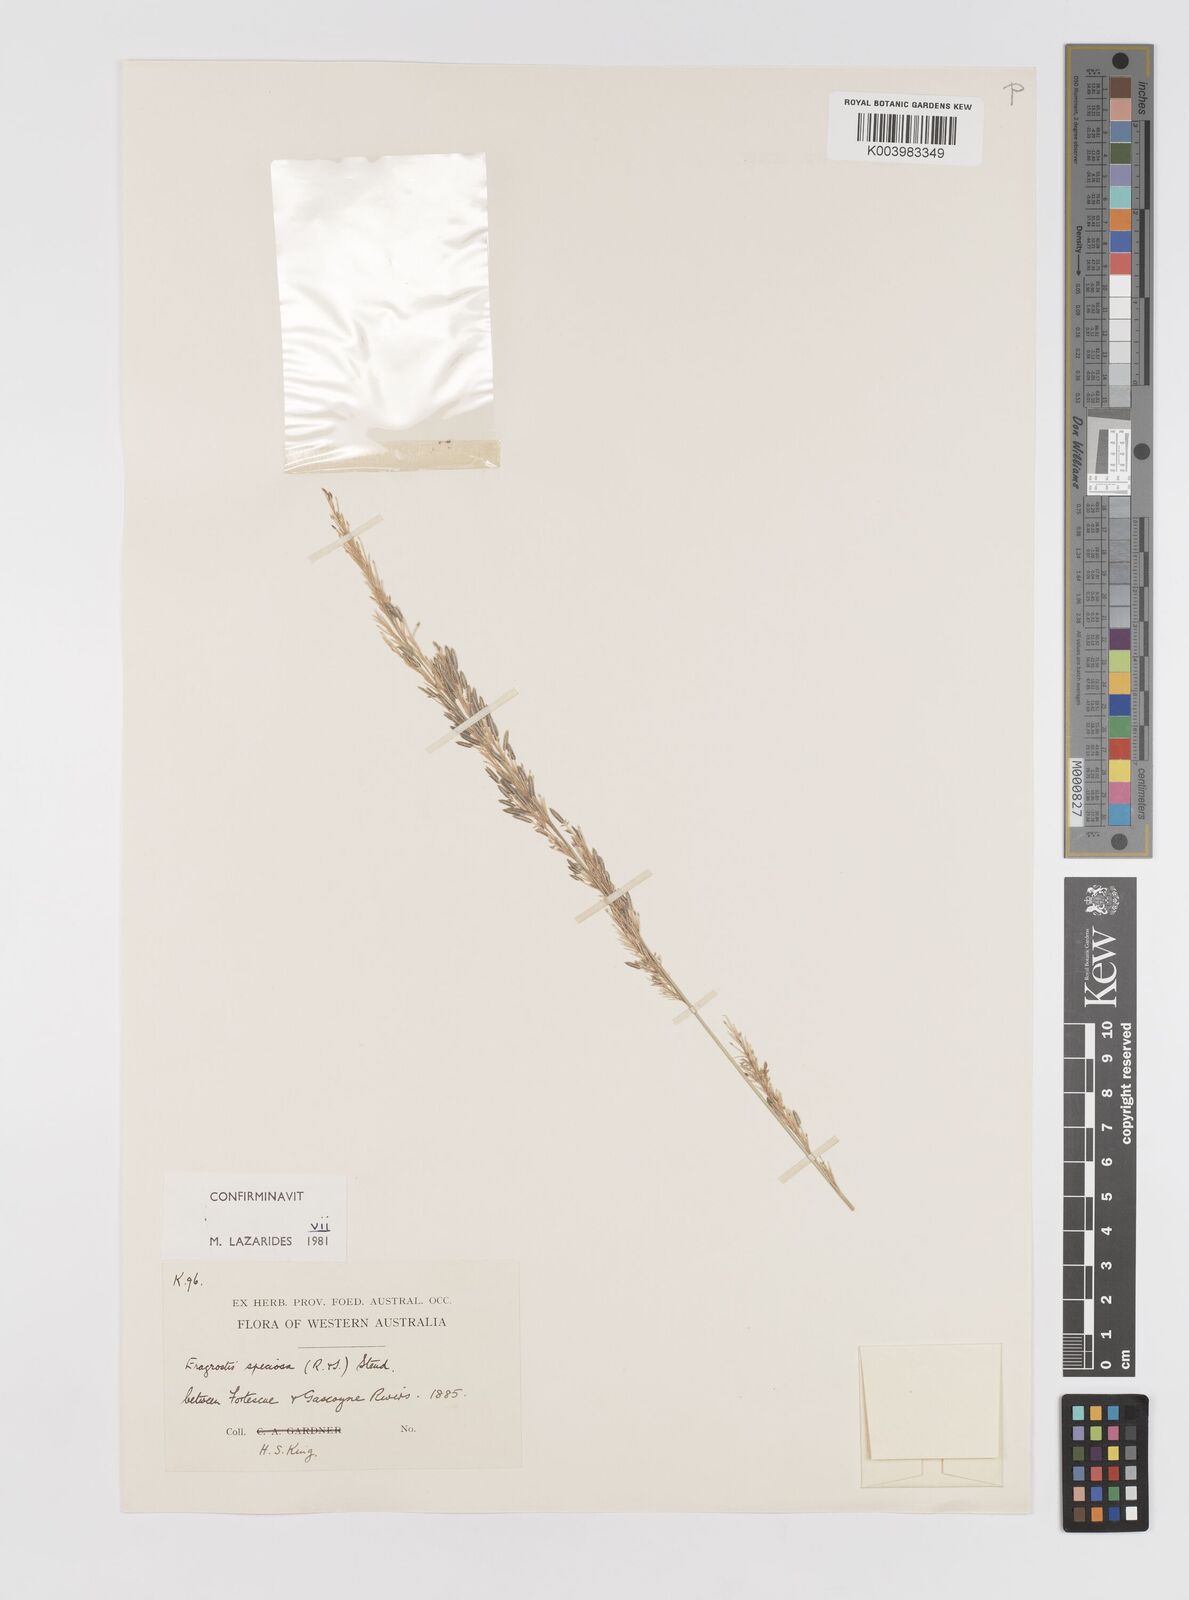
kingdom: Plantae
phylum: Tracheophyta
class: Liliopsida
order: Poales
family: Poaceae
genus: Eragrostis
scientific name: Eragrostis speciosa
